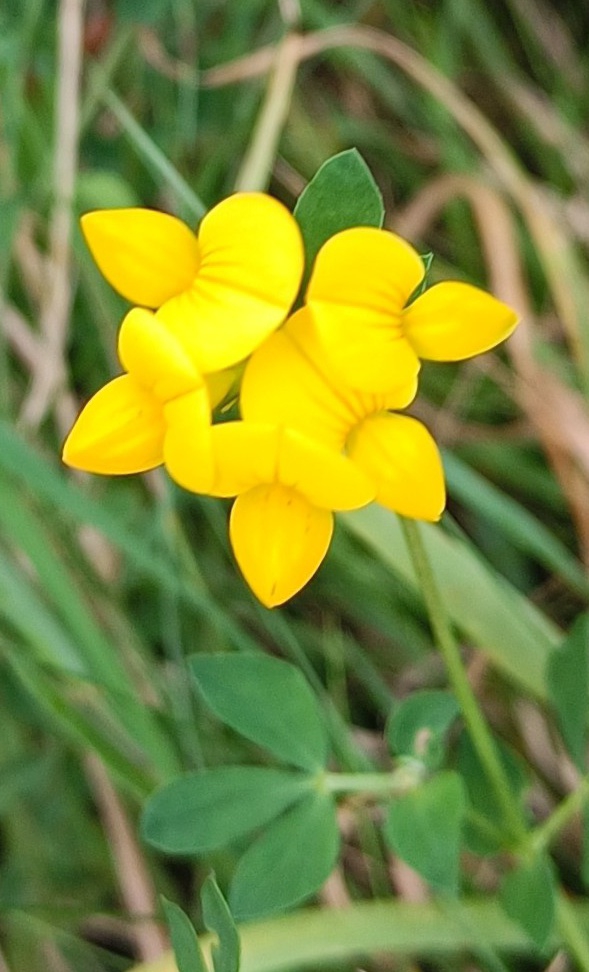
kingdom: Plantae
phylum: Tracheophyta
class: Magnoliopsida
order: Fabales
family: Fabaceae
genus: Lotus
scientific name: Lotus corniculatus
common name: Almindelig kællingetand
